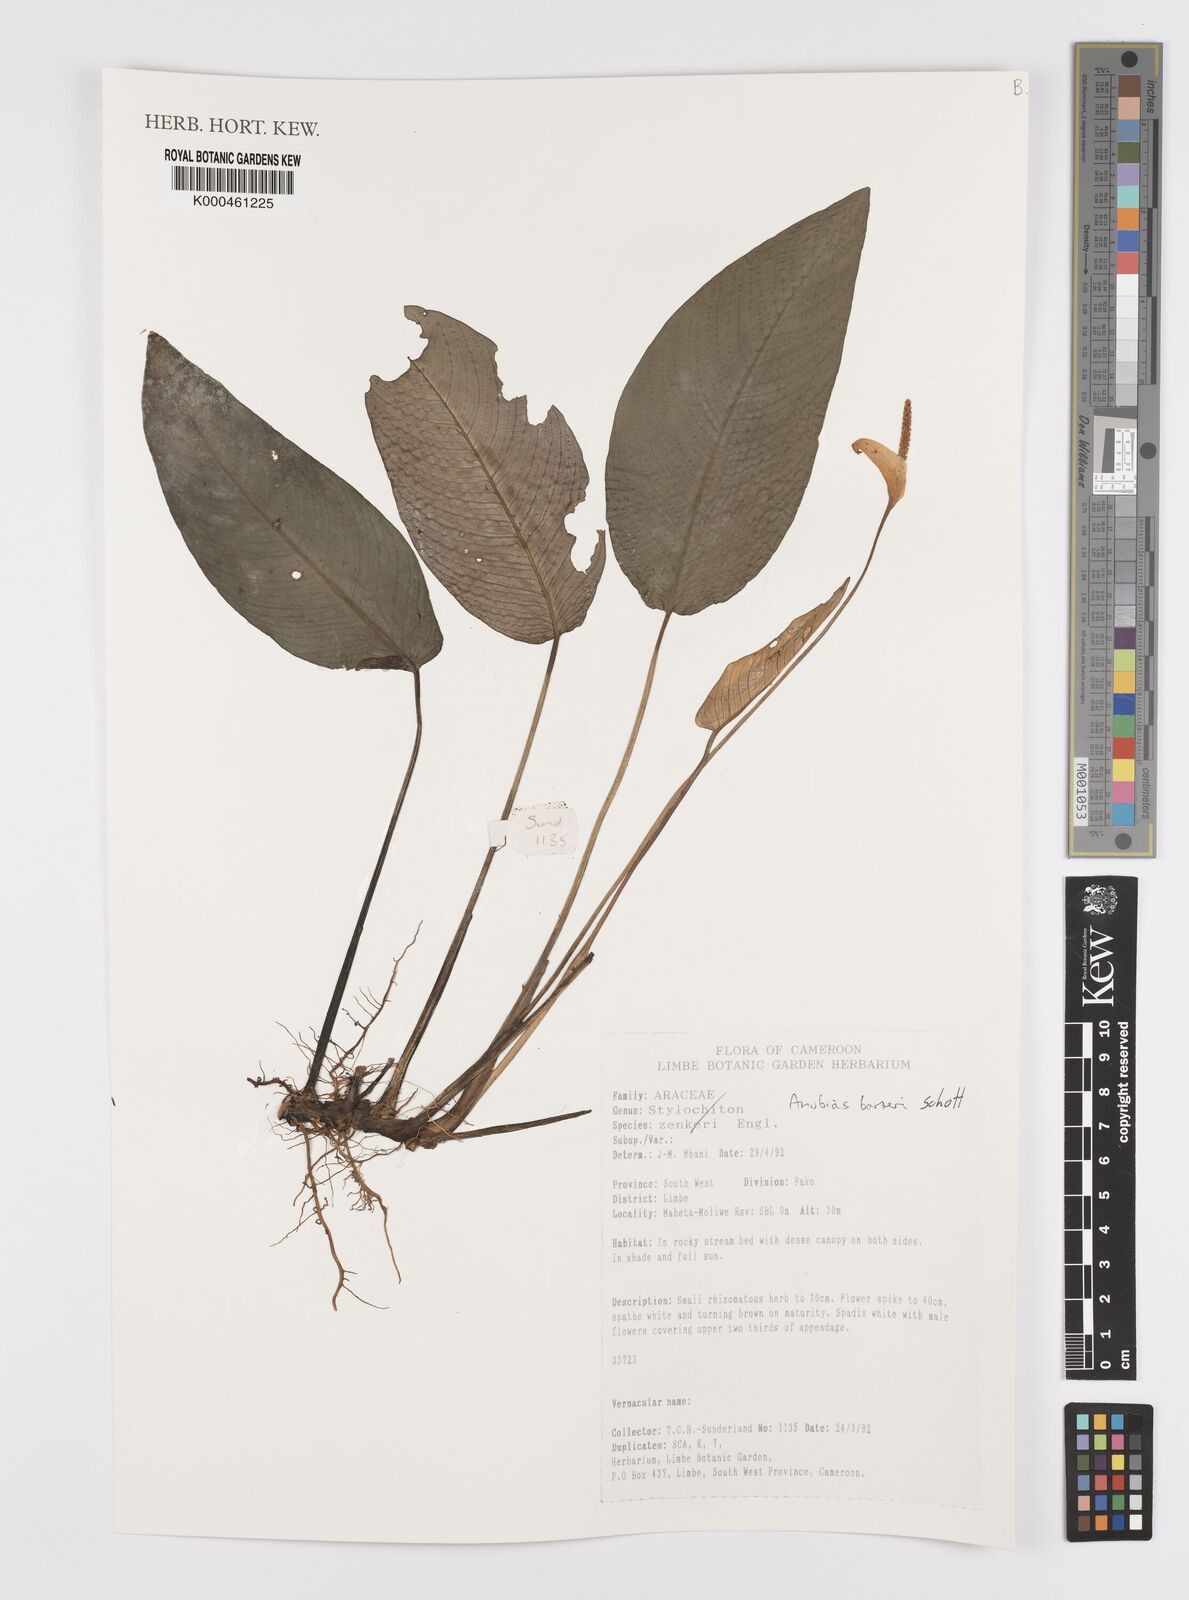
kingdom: Plantae
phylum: Tracheophyta
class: Liliopsida
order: Alismatales
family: Araceae
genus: Anubias
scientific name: Anubias barteri
